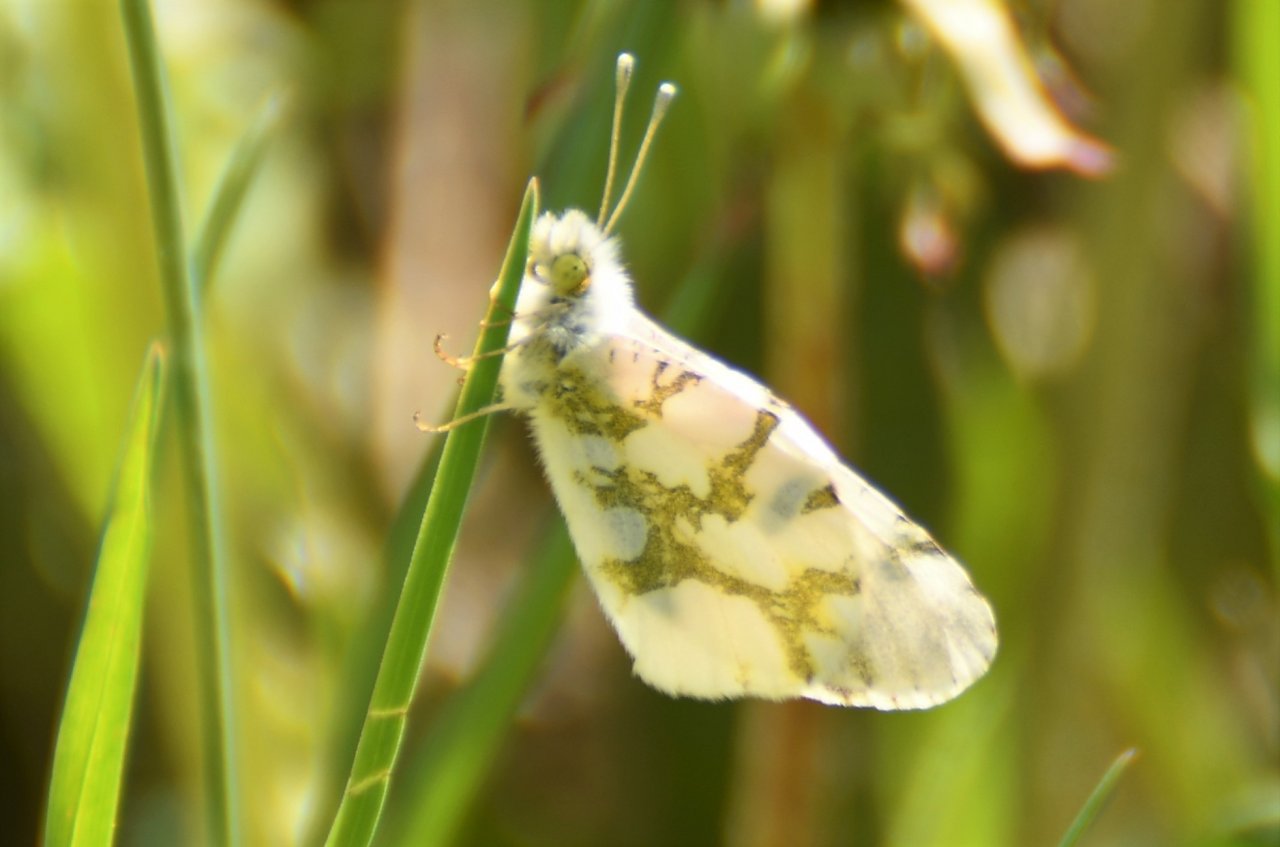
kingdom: Animalia
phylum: Arthropoda
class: Insecta
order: Lepidoptera
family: Pieridae
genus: Euchloe
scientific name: Euchloe olympia
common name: Olympia Marble
